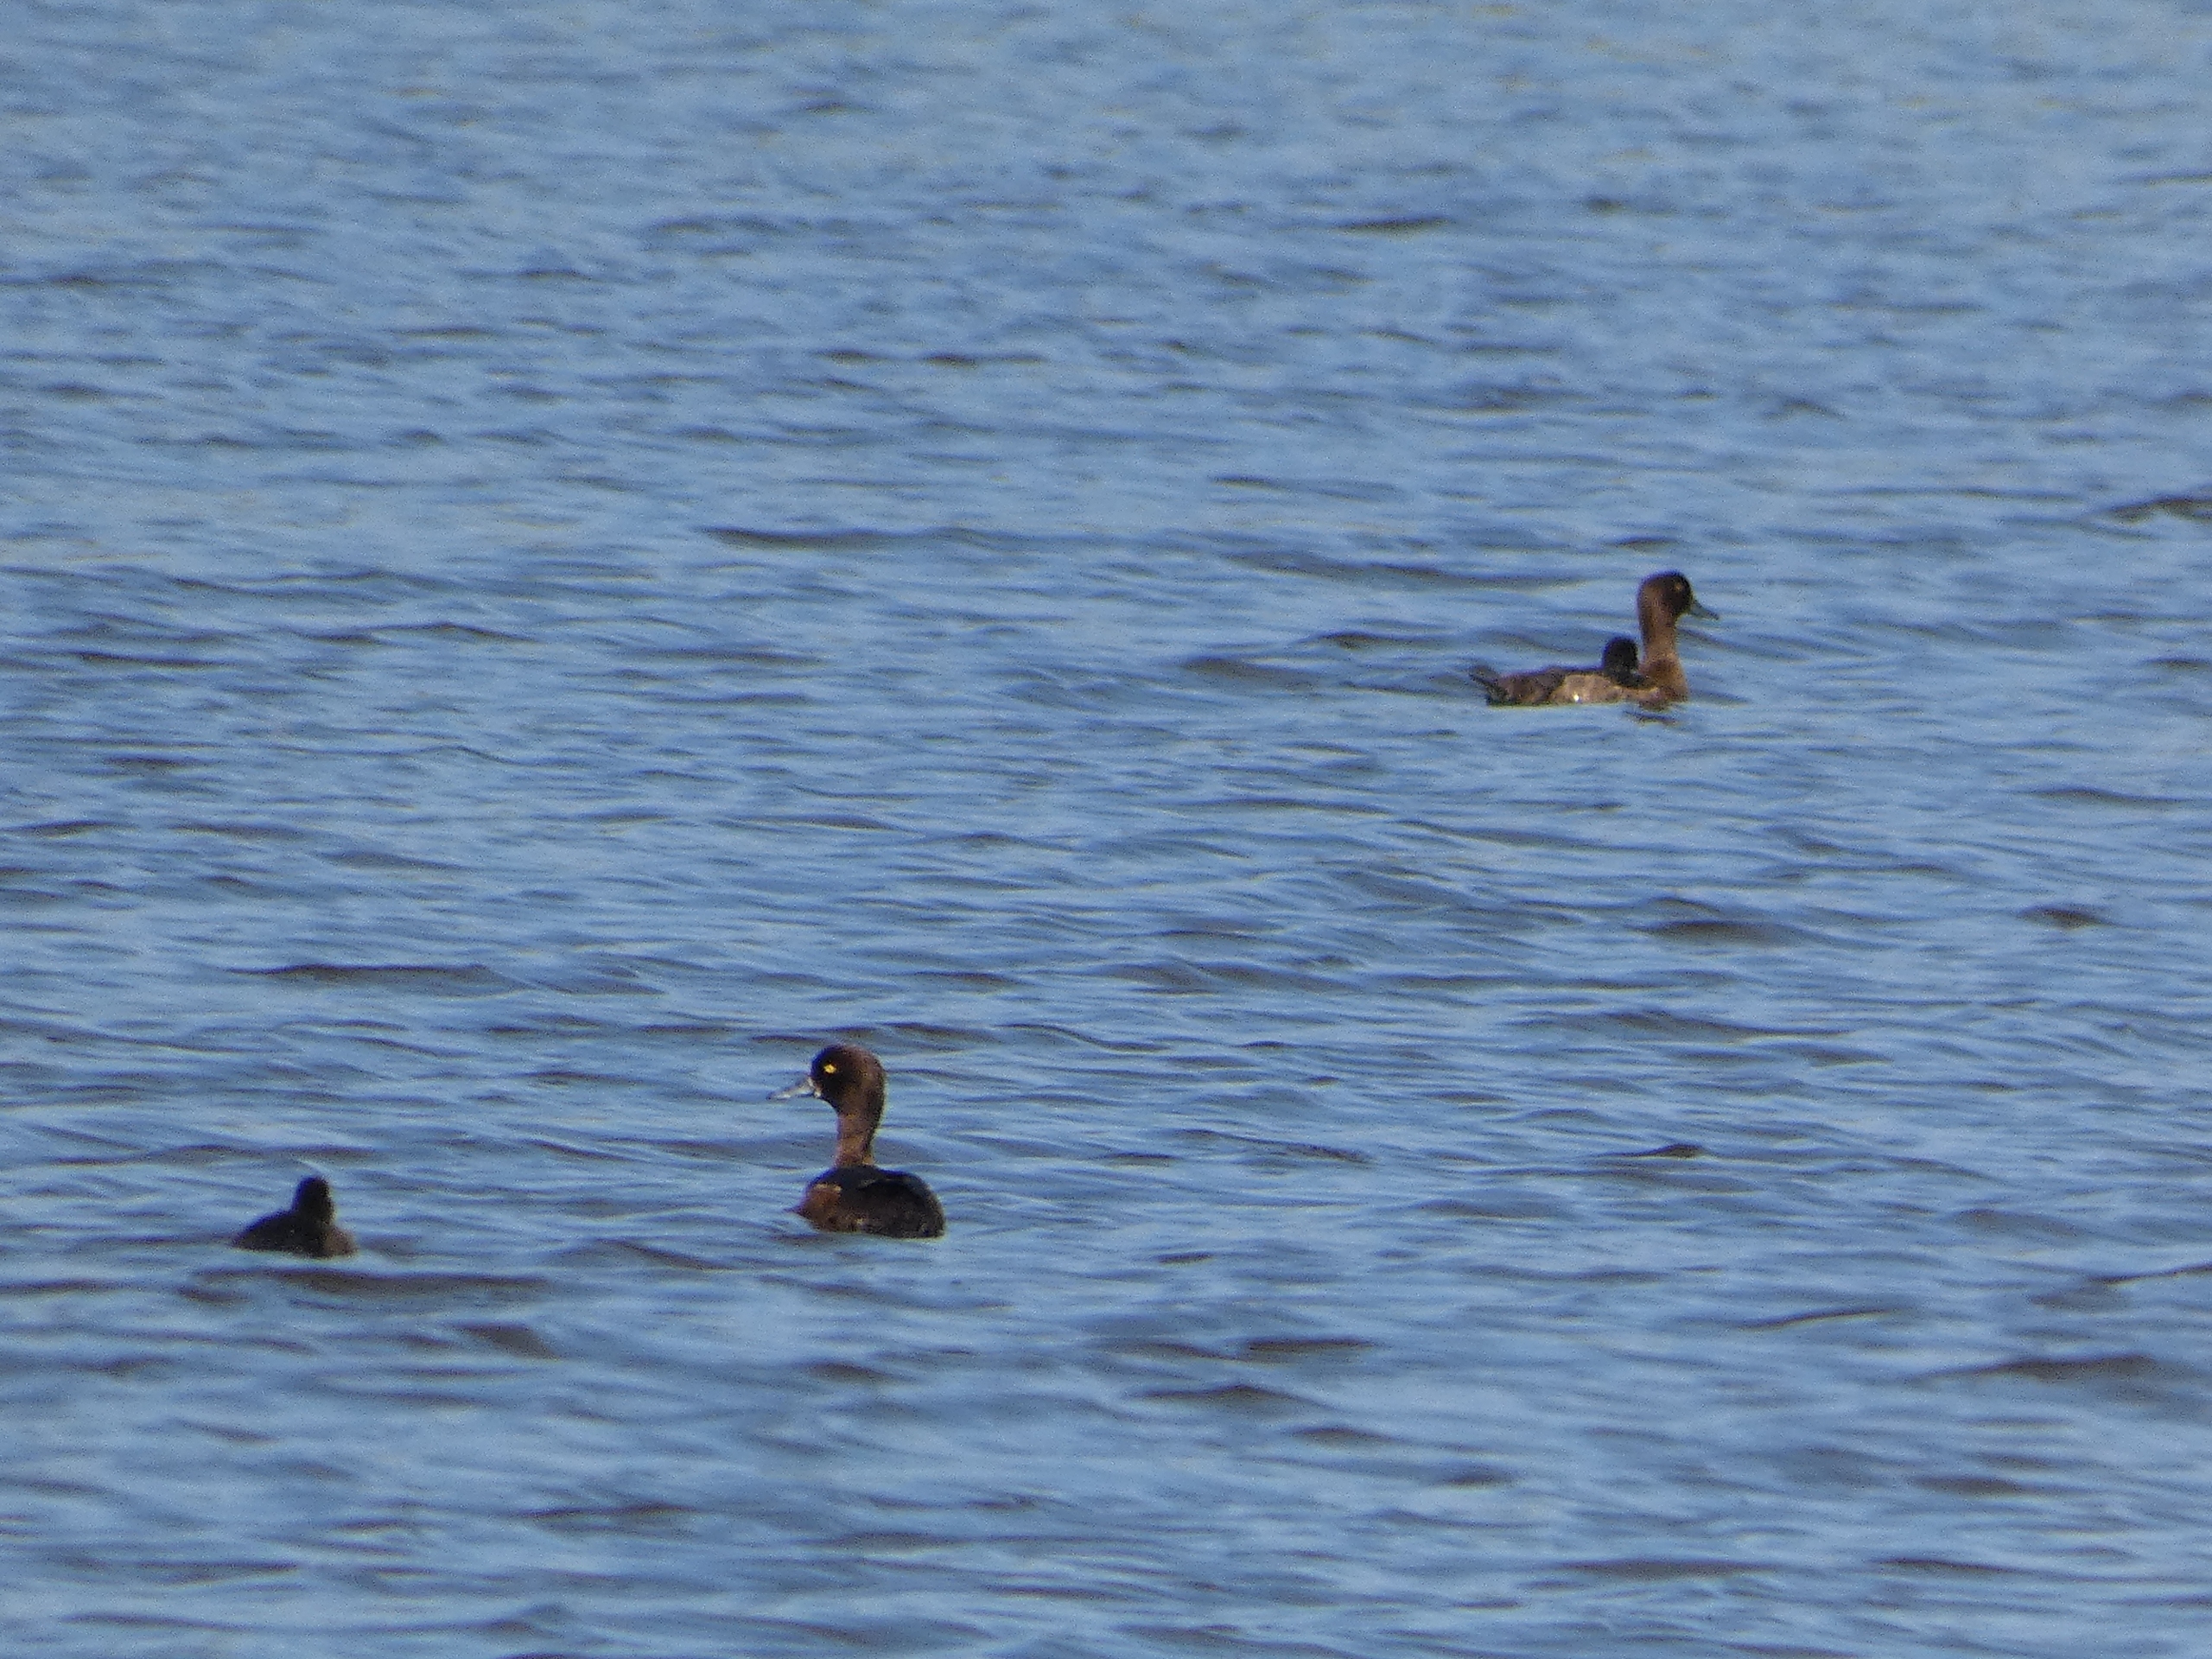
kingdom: Animalia
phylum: Chordata
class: Aves
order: Anseriformes
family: Anatidae
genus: Aythya
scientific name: Aythya fuligula
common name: Troldand
